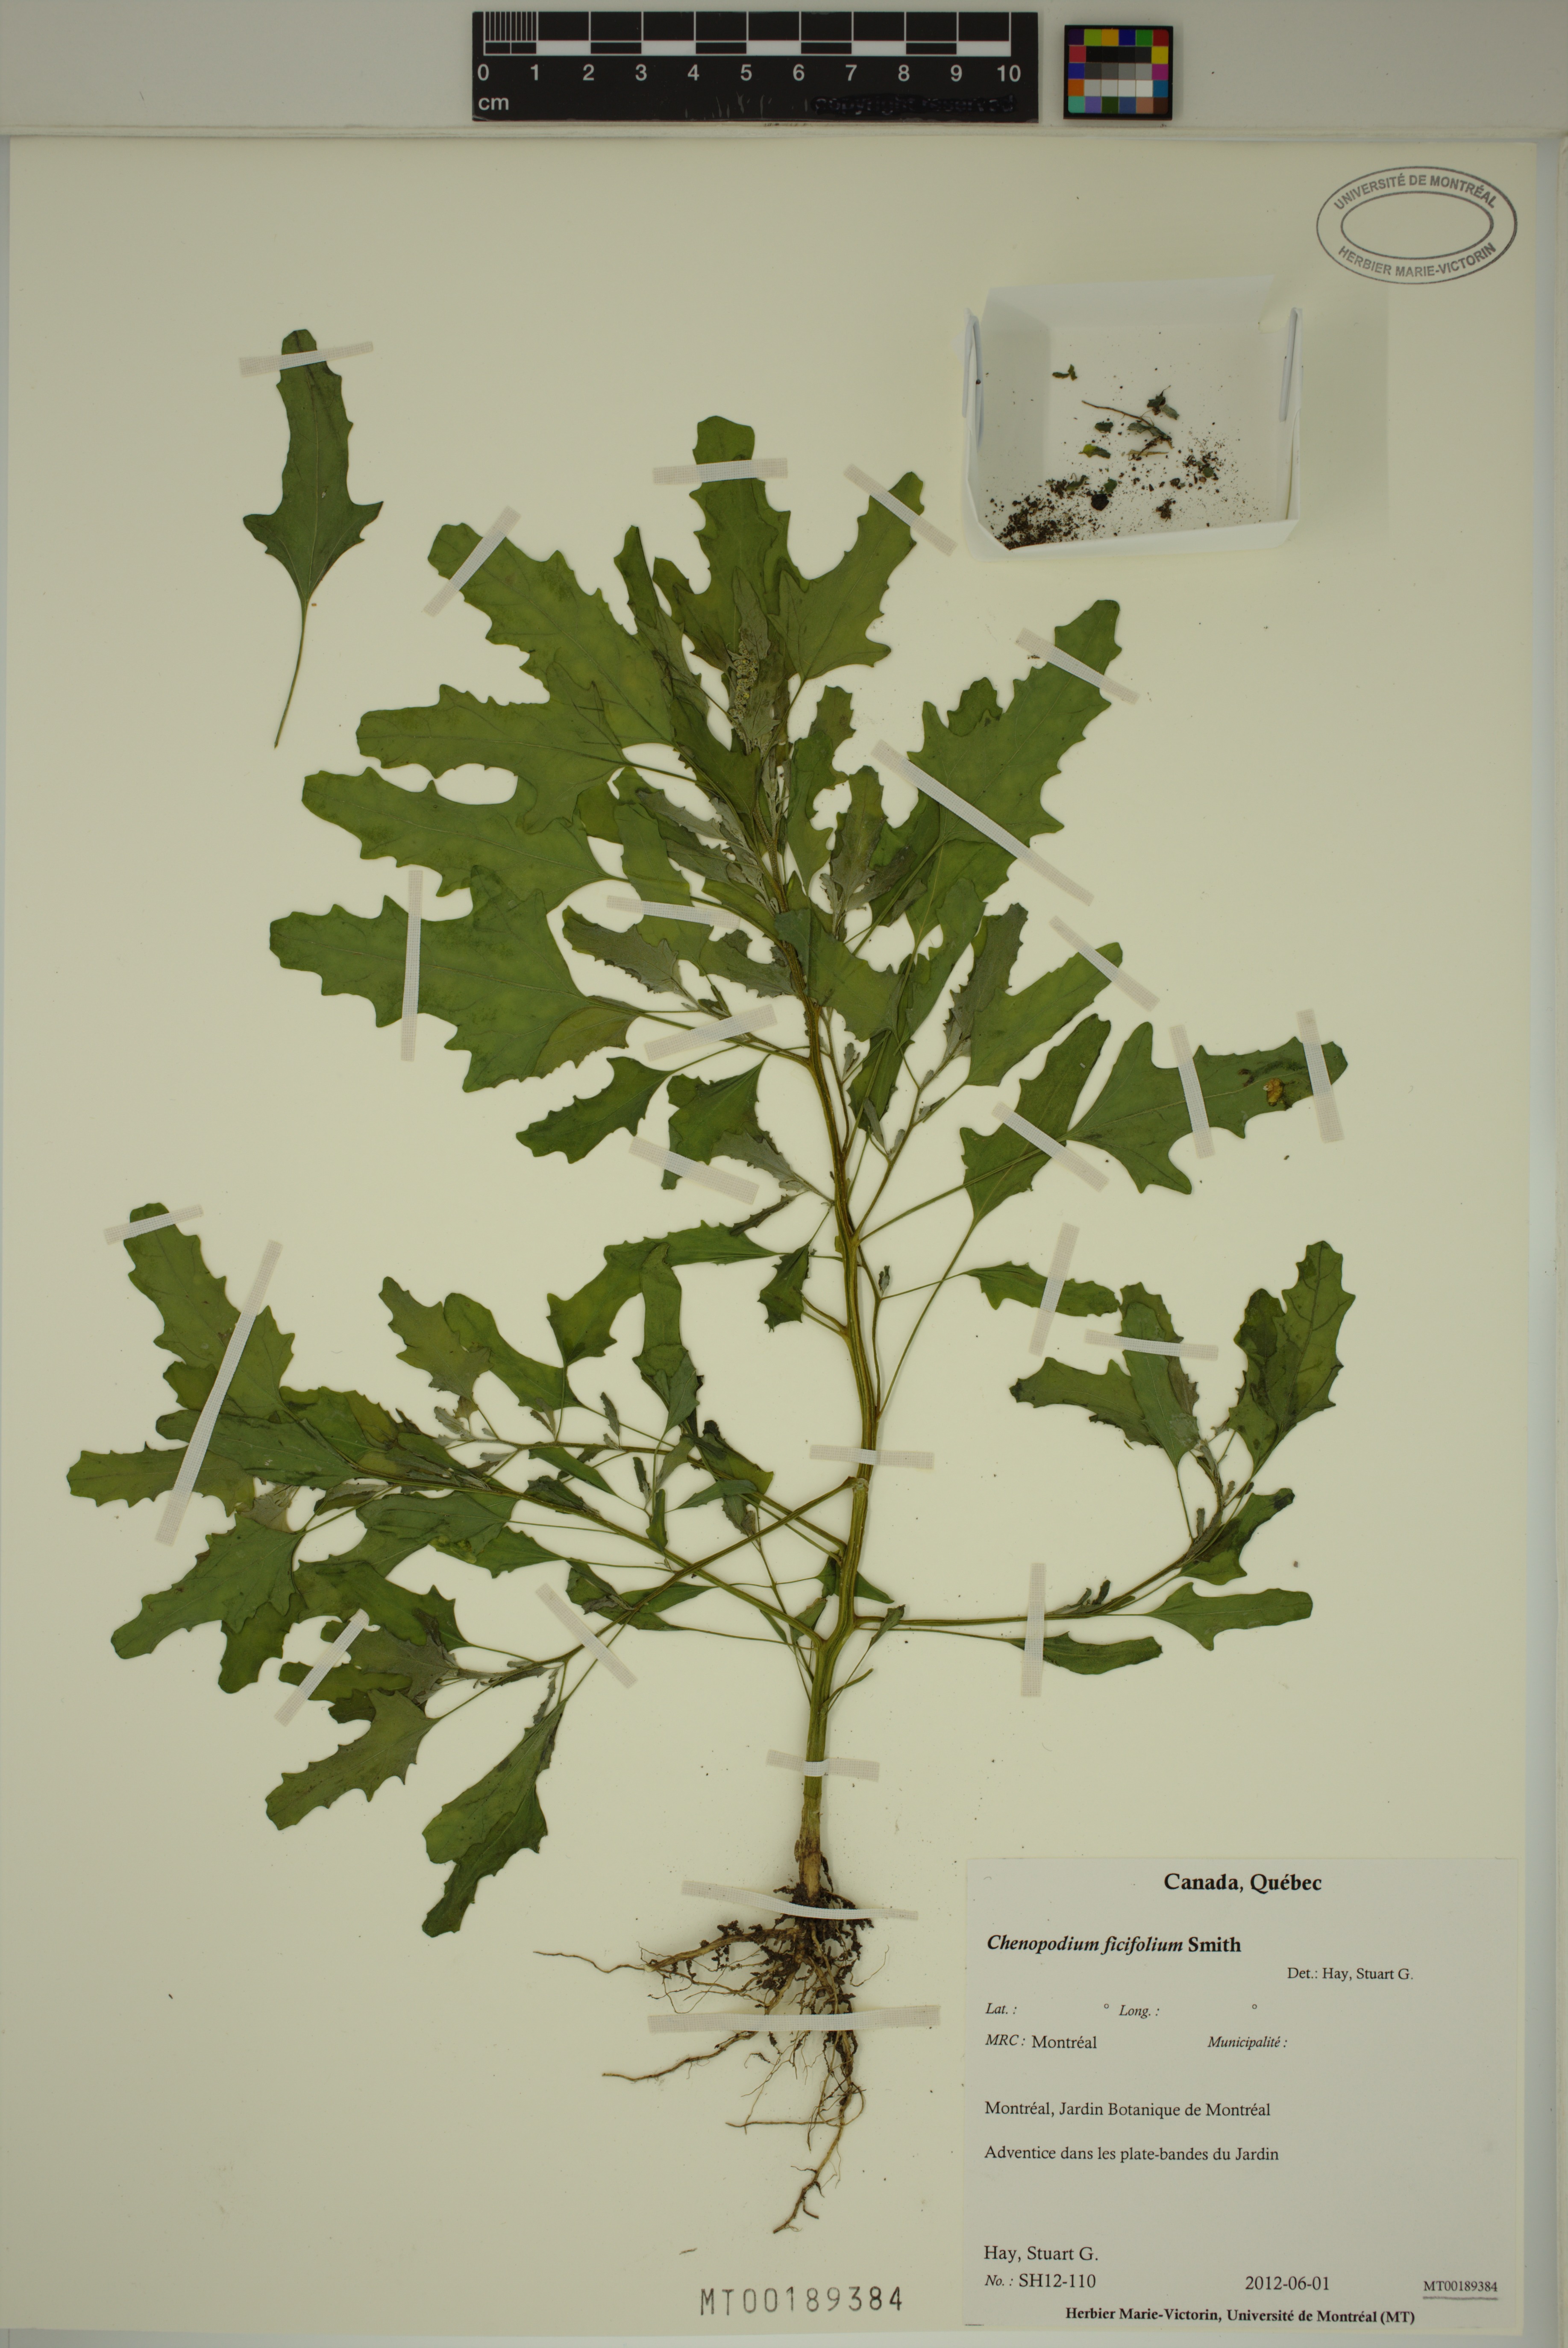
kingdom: Plantae
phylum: Tracheophyta
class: Magnoliopsida
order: Caryophyllales
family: Amaranthaceae
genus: Chenopodium
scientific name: Chenopodium ficifolium
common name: Fig-leaved goosefoot
